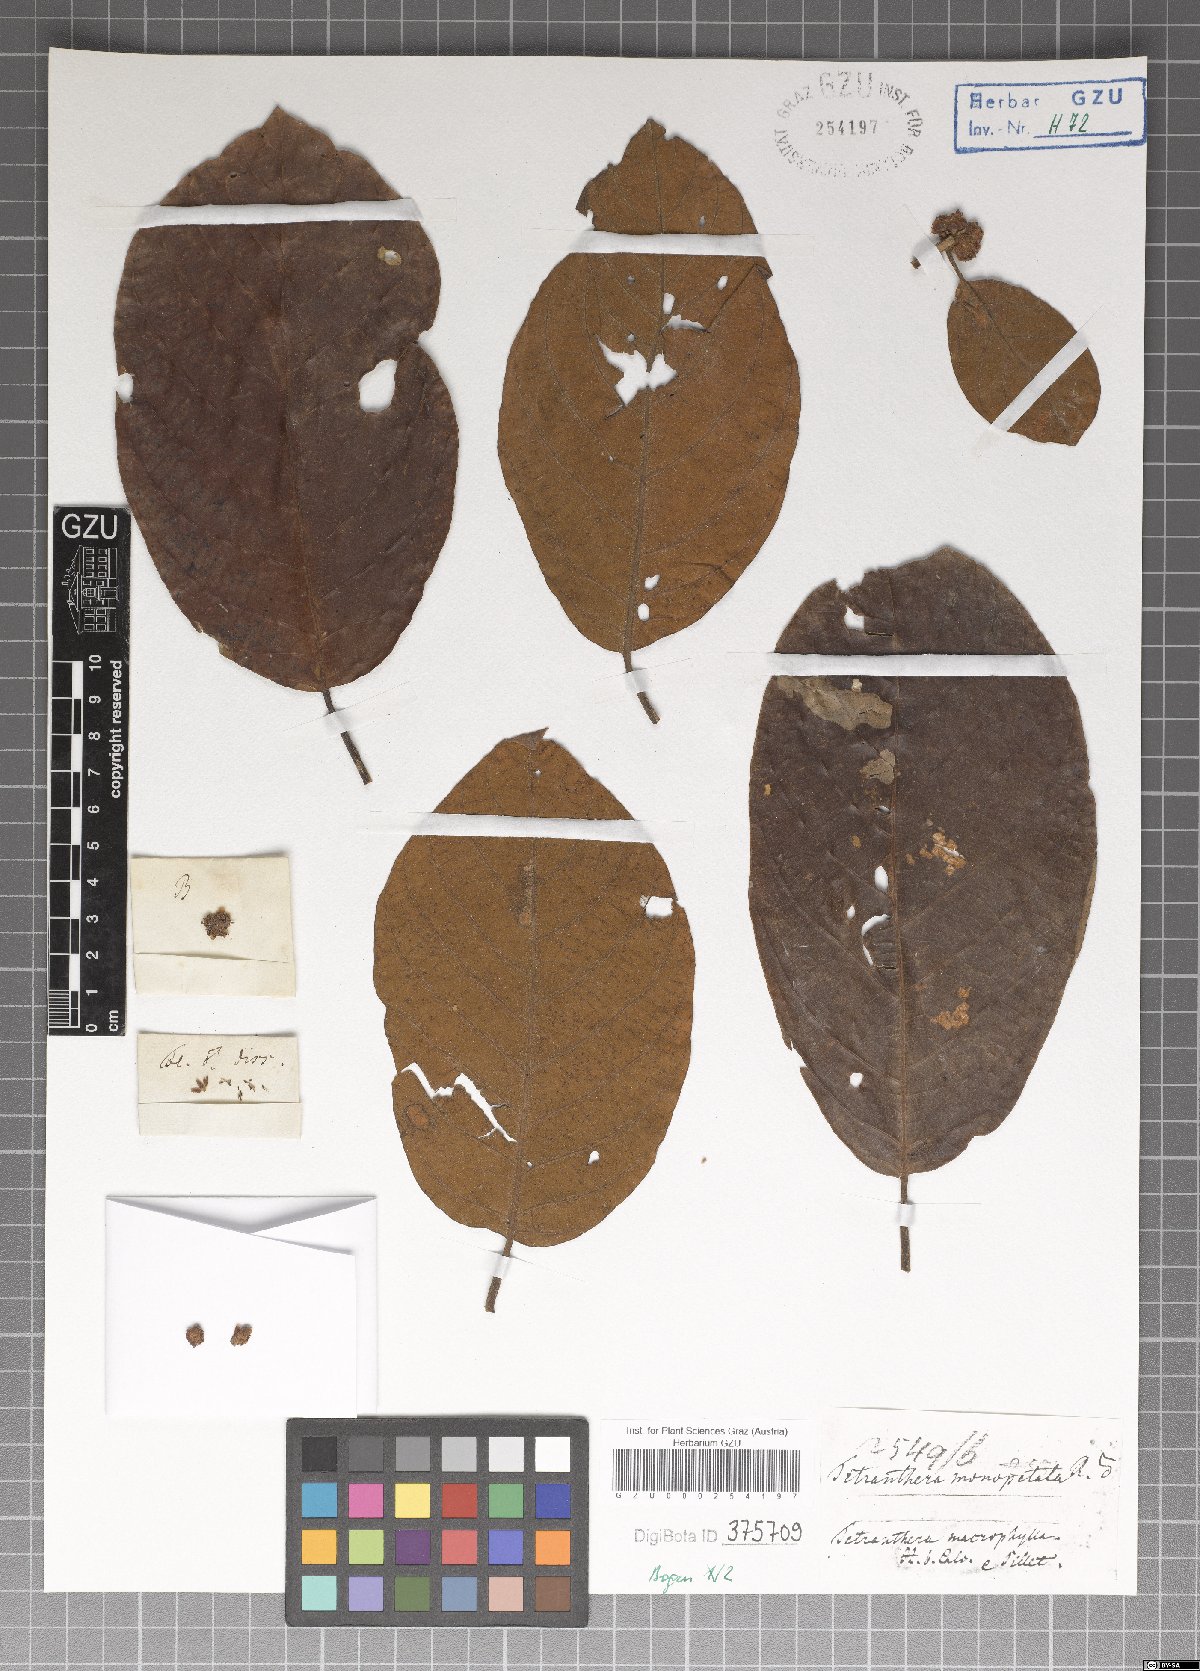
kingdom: Plantae
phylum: Tracheophyta
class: Magnoliopsida
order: Laurales
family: Lauraceae
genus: Litsea
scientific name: Litsea monopetala
